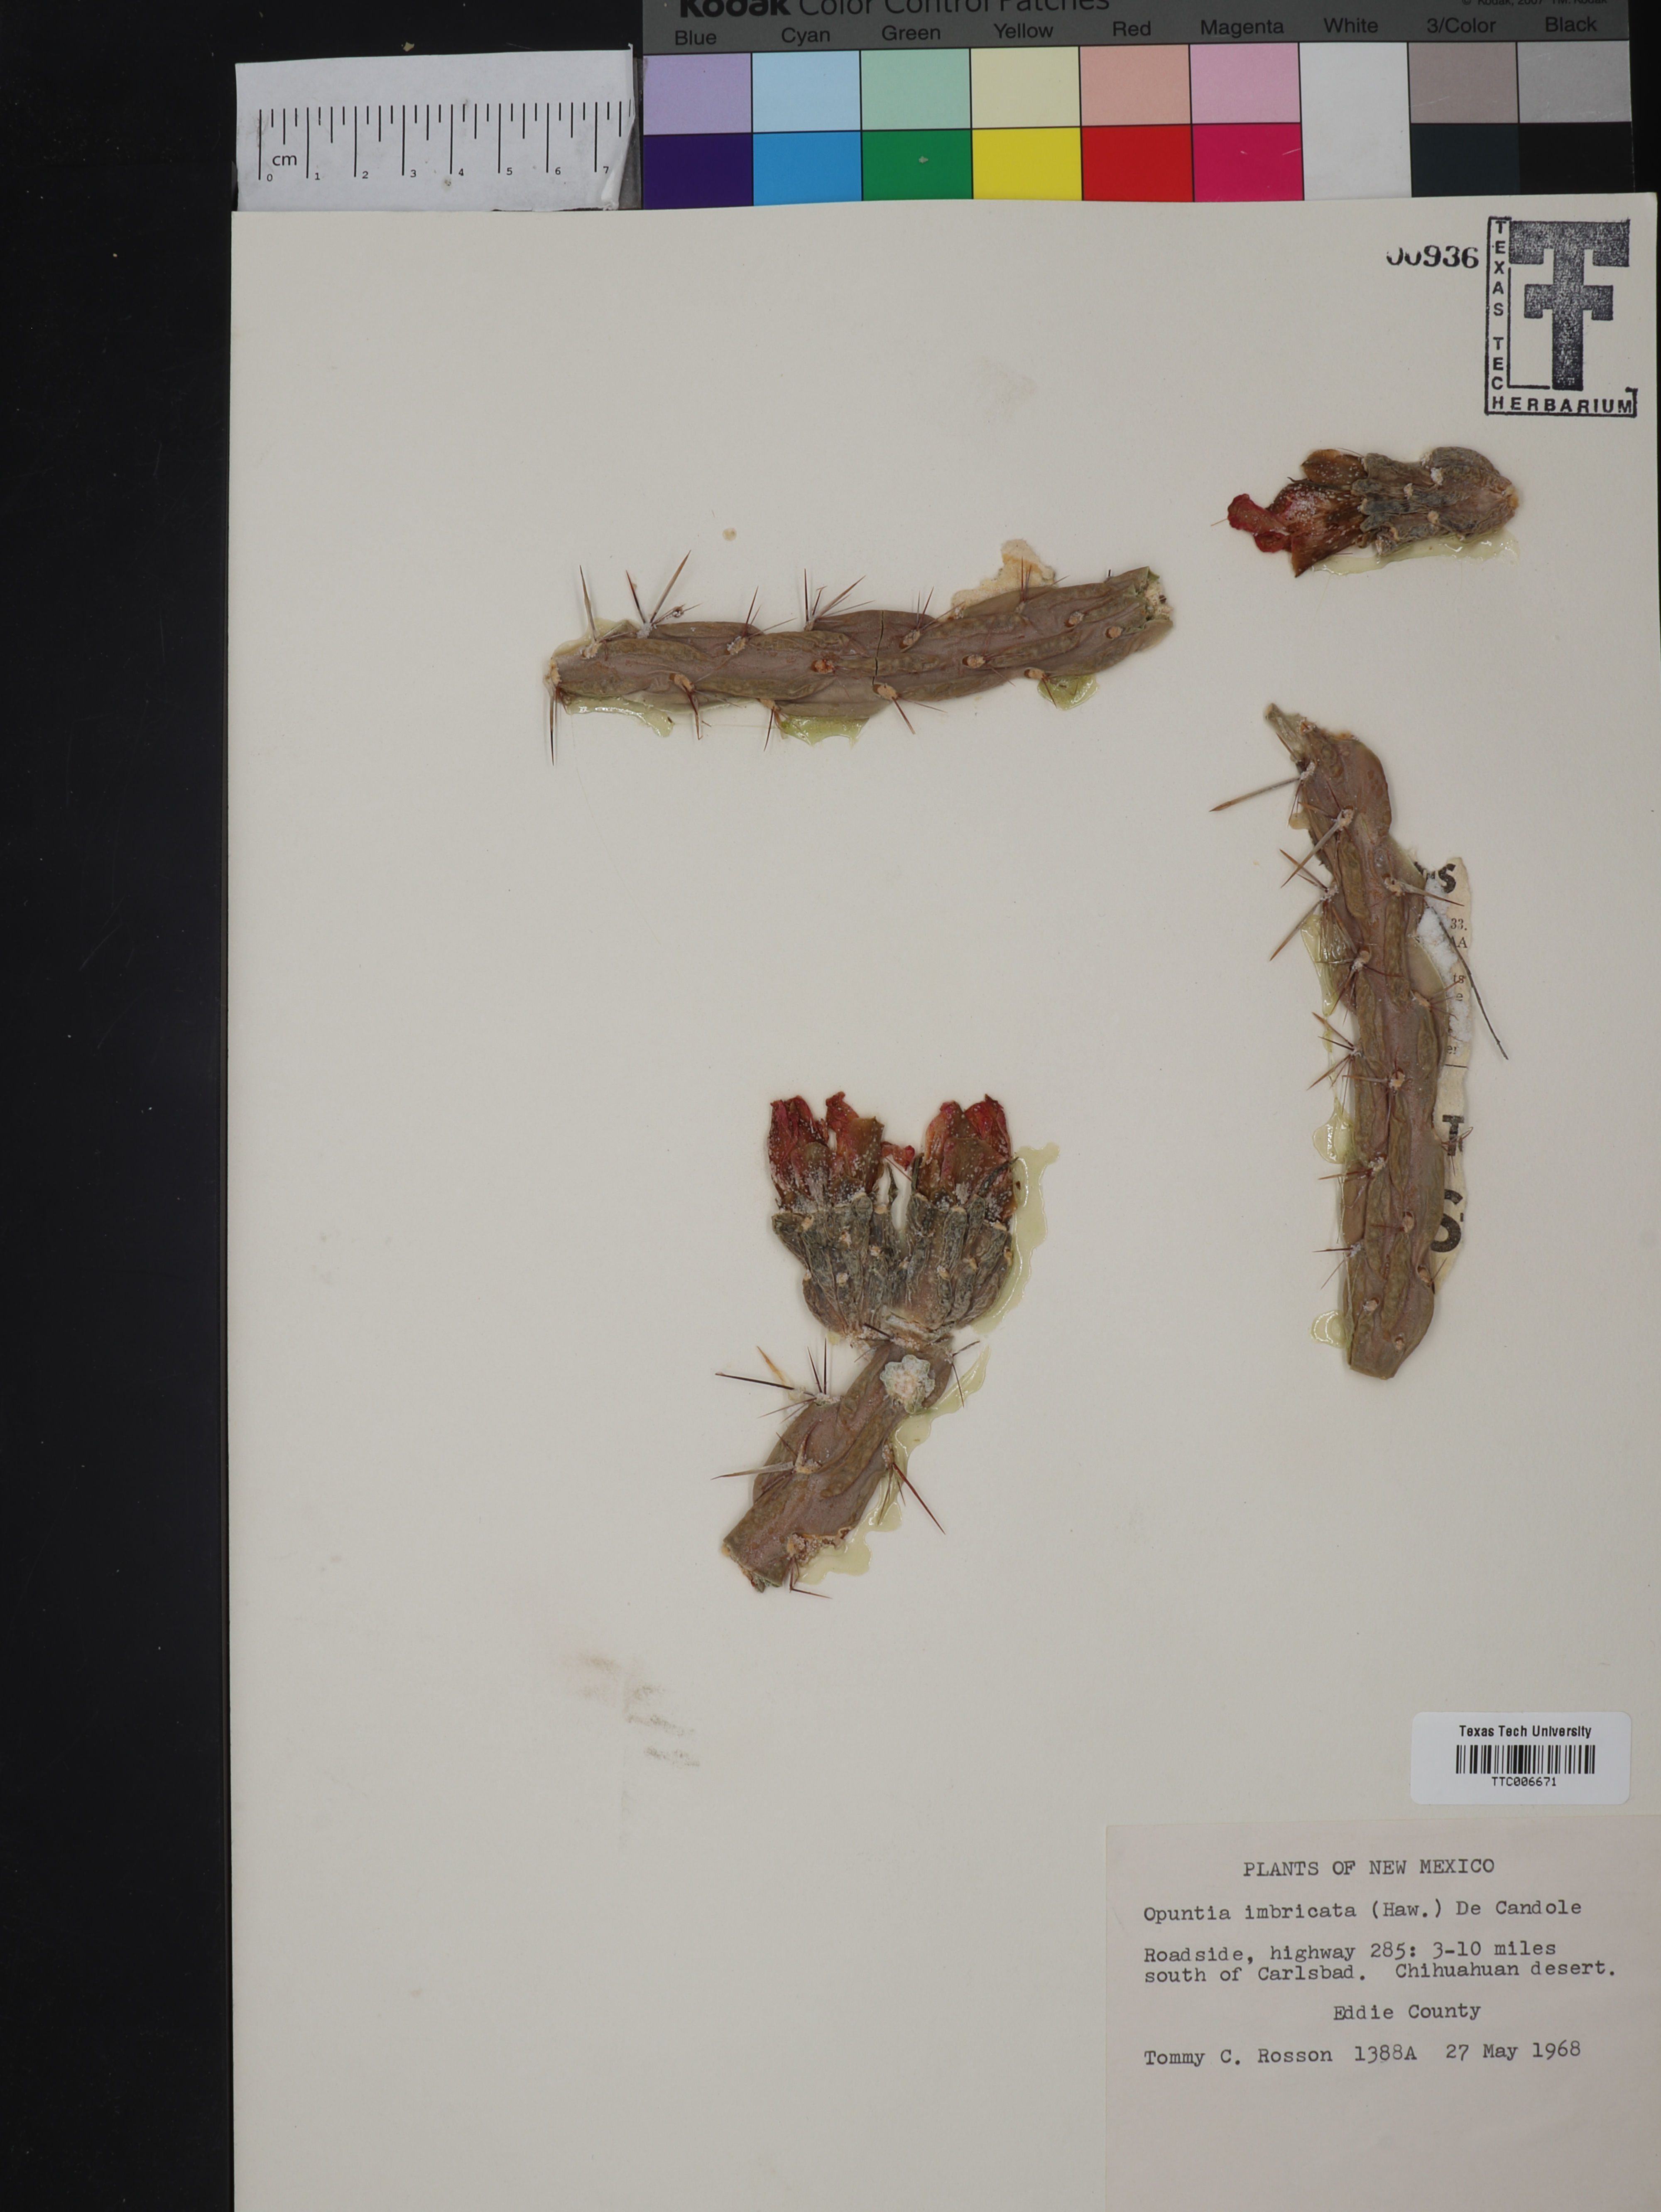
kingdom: Plantae
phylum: Tracheophyta
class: Magnoliopsida
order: Caryophyllales
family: Cactaceae
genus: Cylindropuntia
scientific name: Cylindropuntia imbricata
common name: Candelabrum cactus
